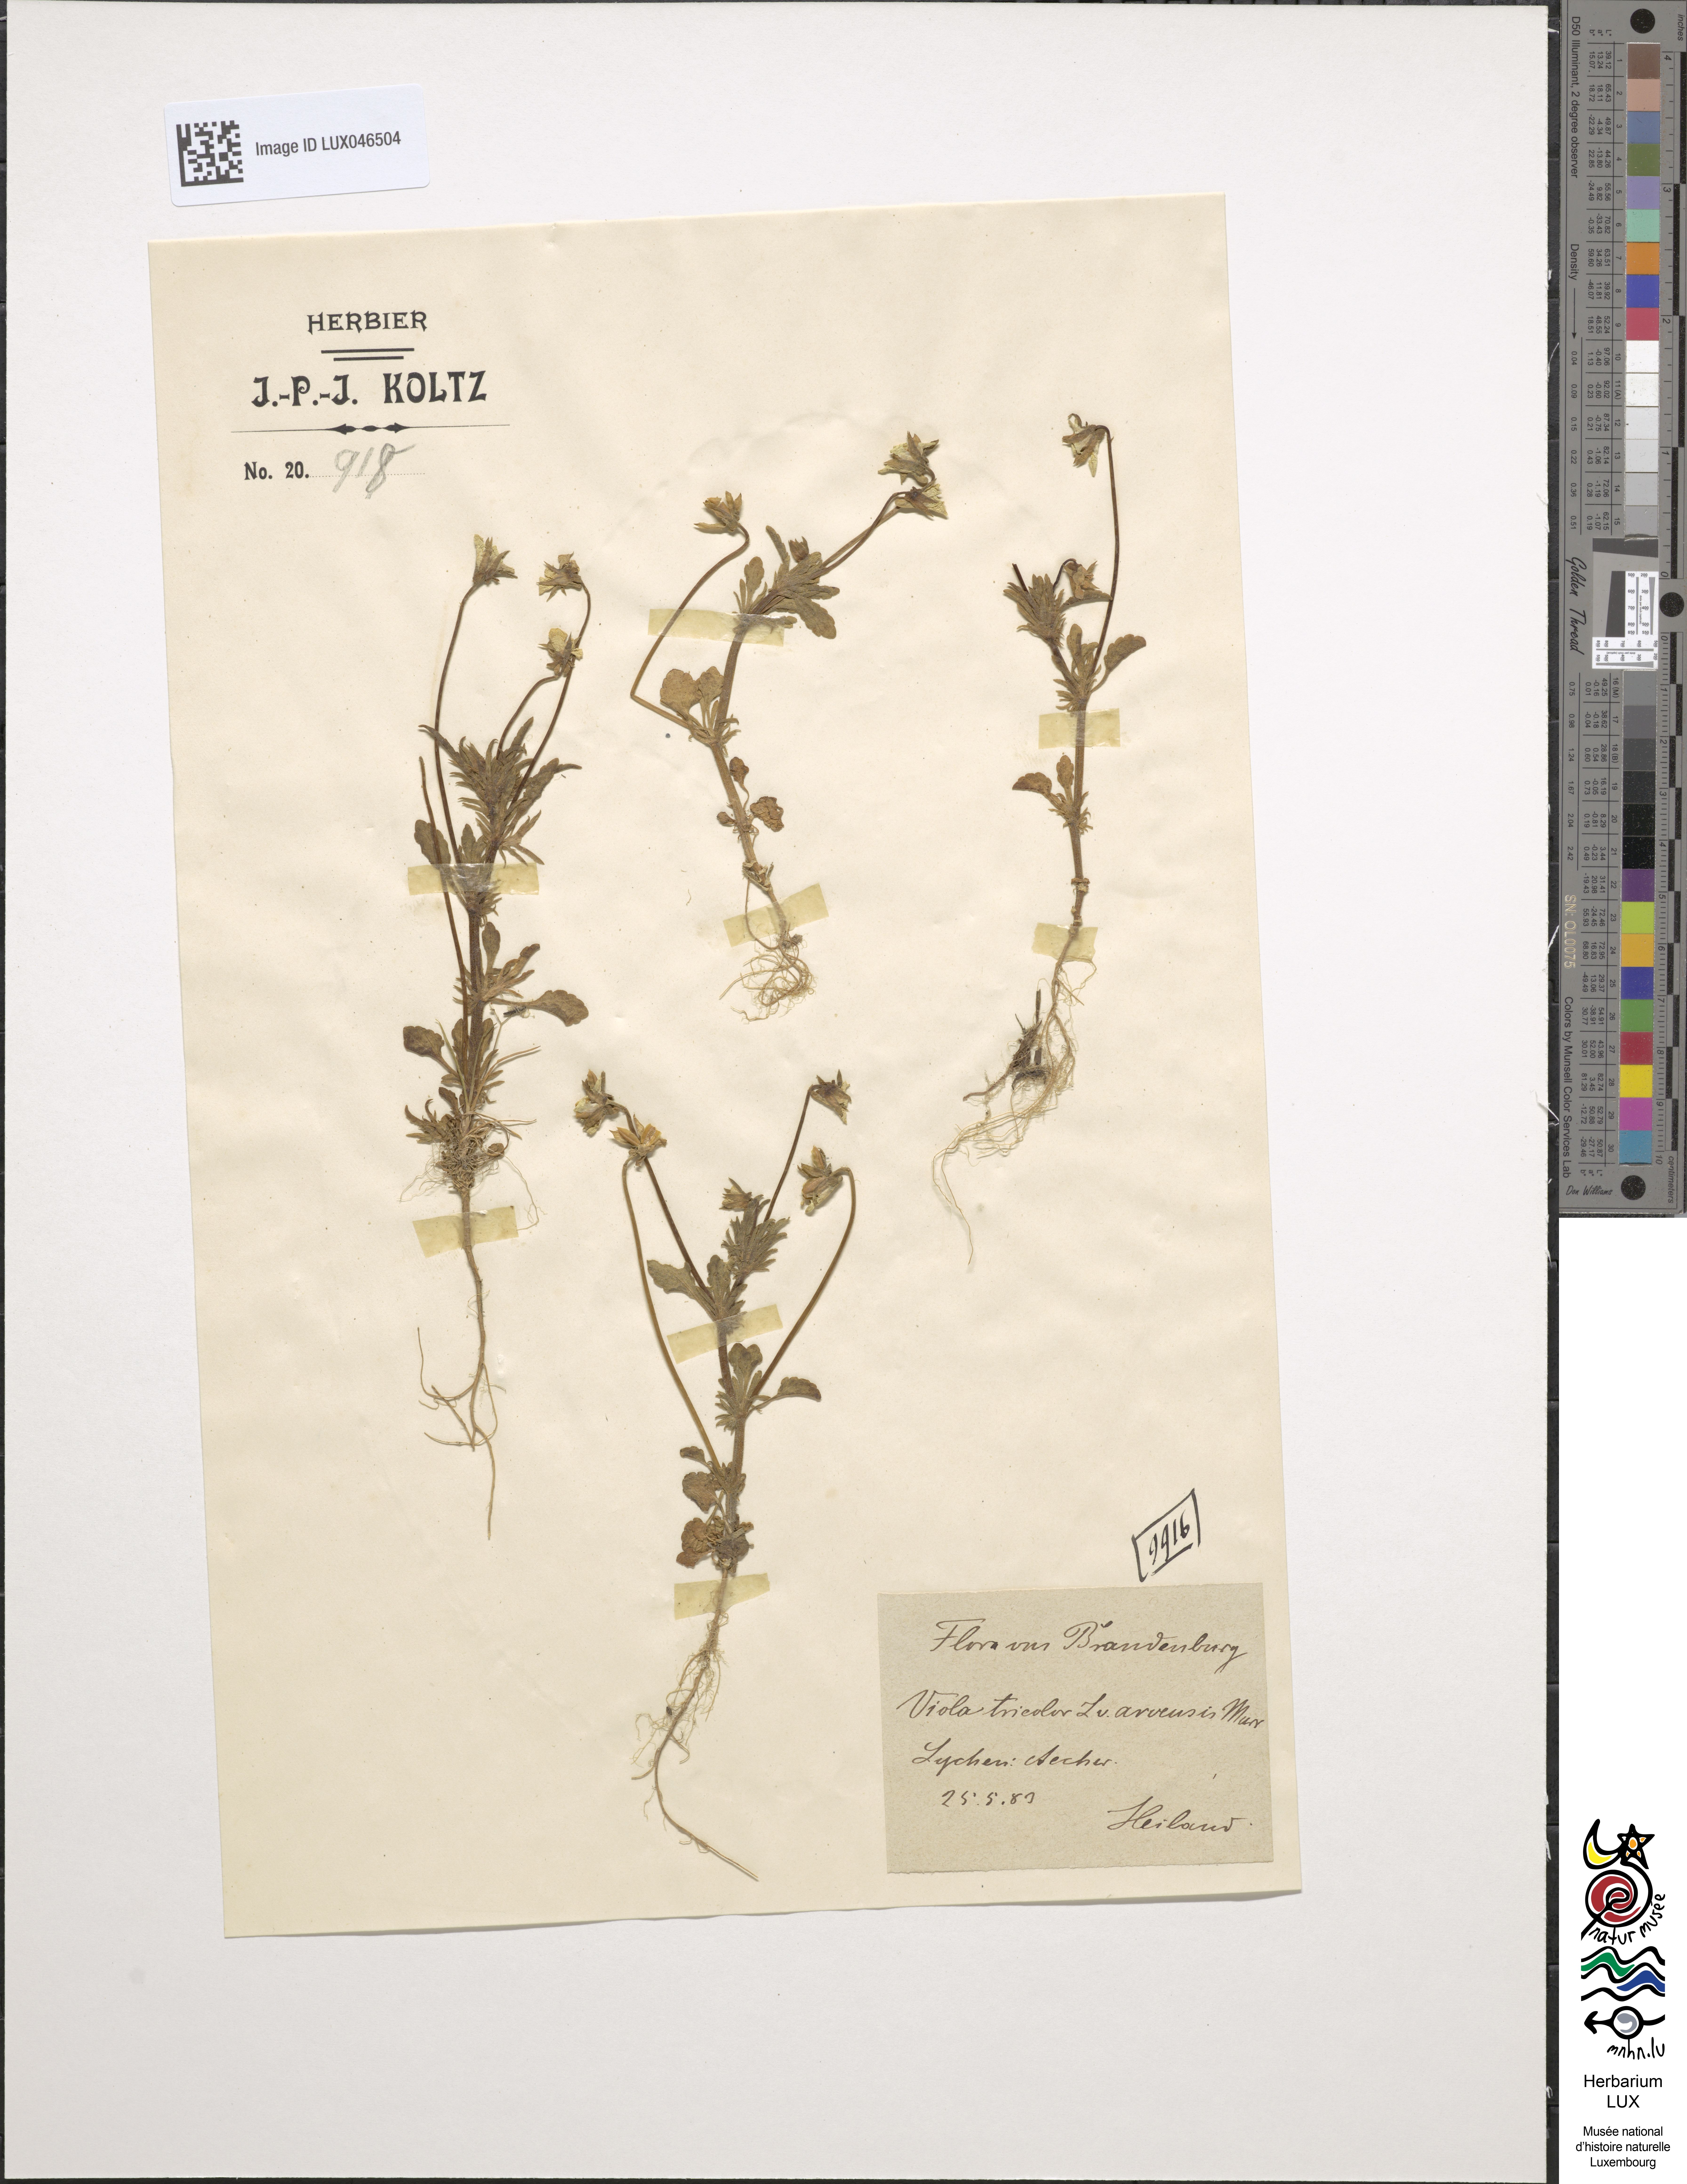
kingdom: Plantae
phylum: Tracheophyta
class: Magnoliopsida
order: Malpighiales
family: Violaceae
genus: Viola
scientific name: Viola arvensis
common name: Field pansy
